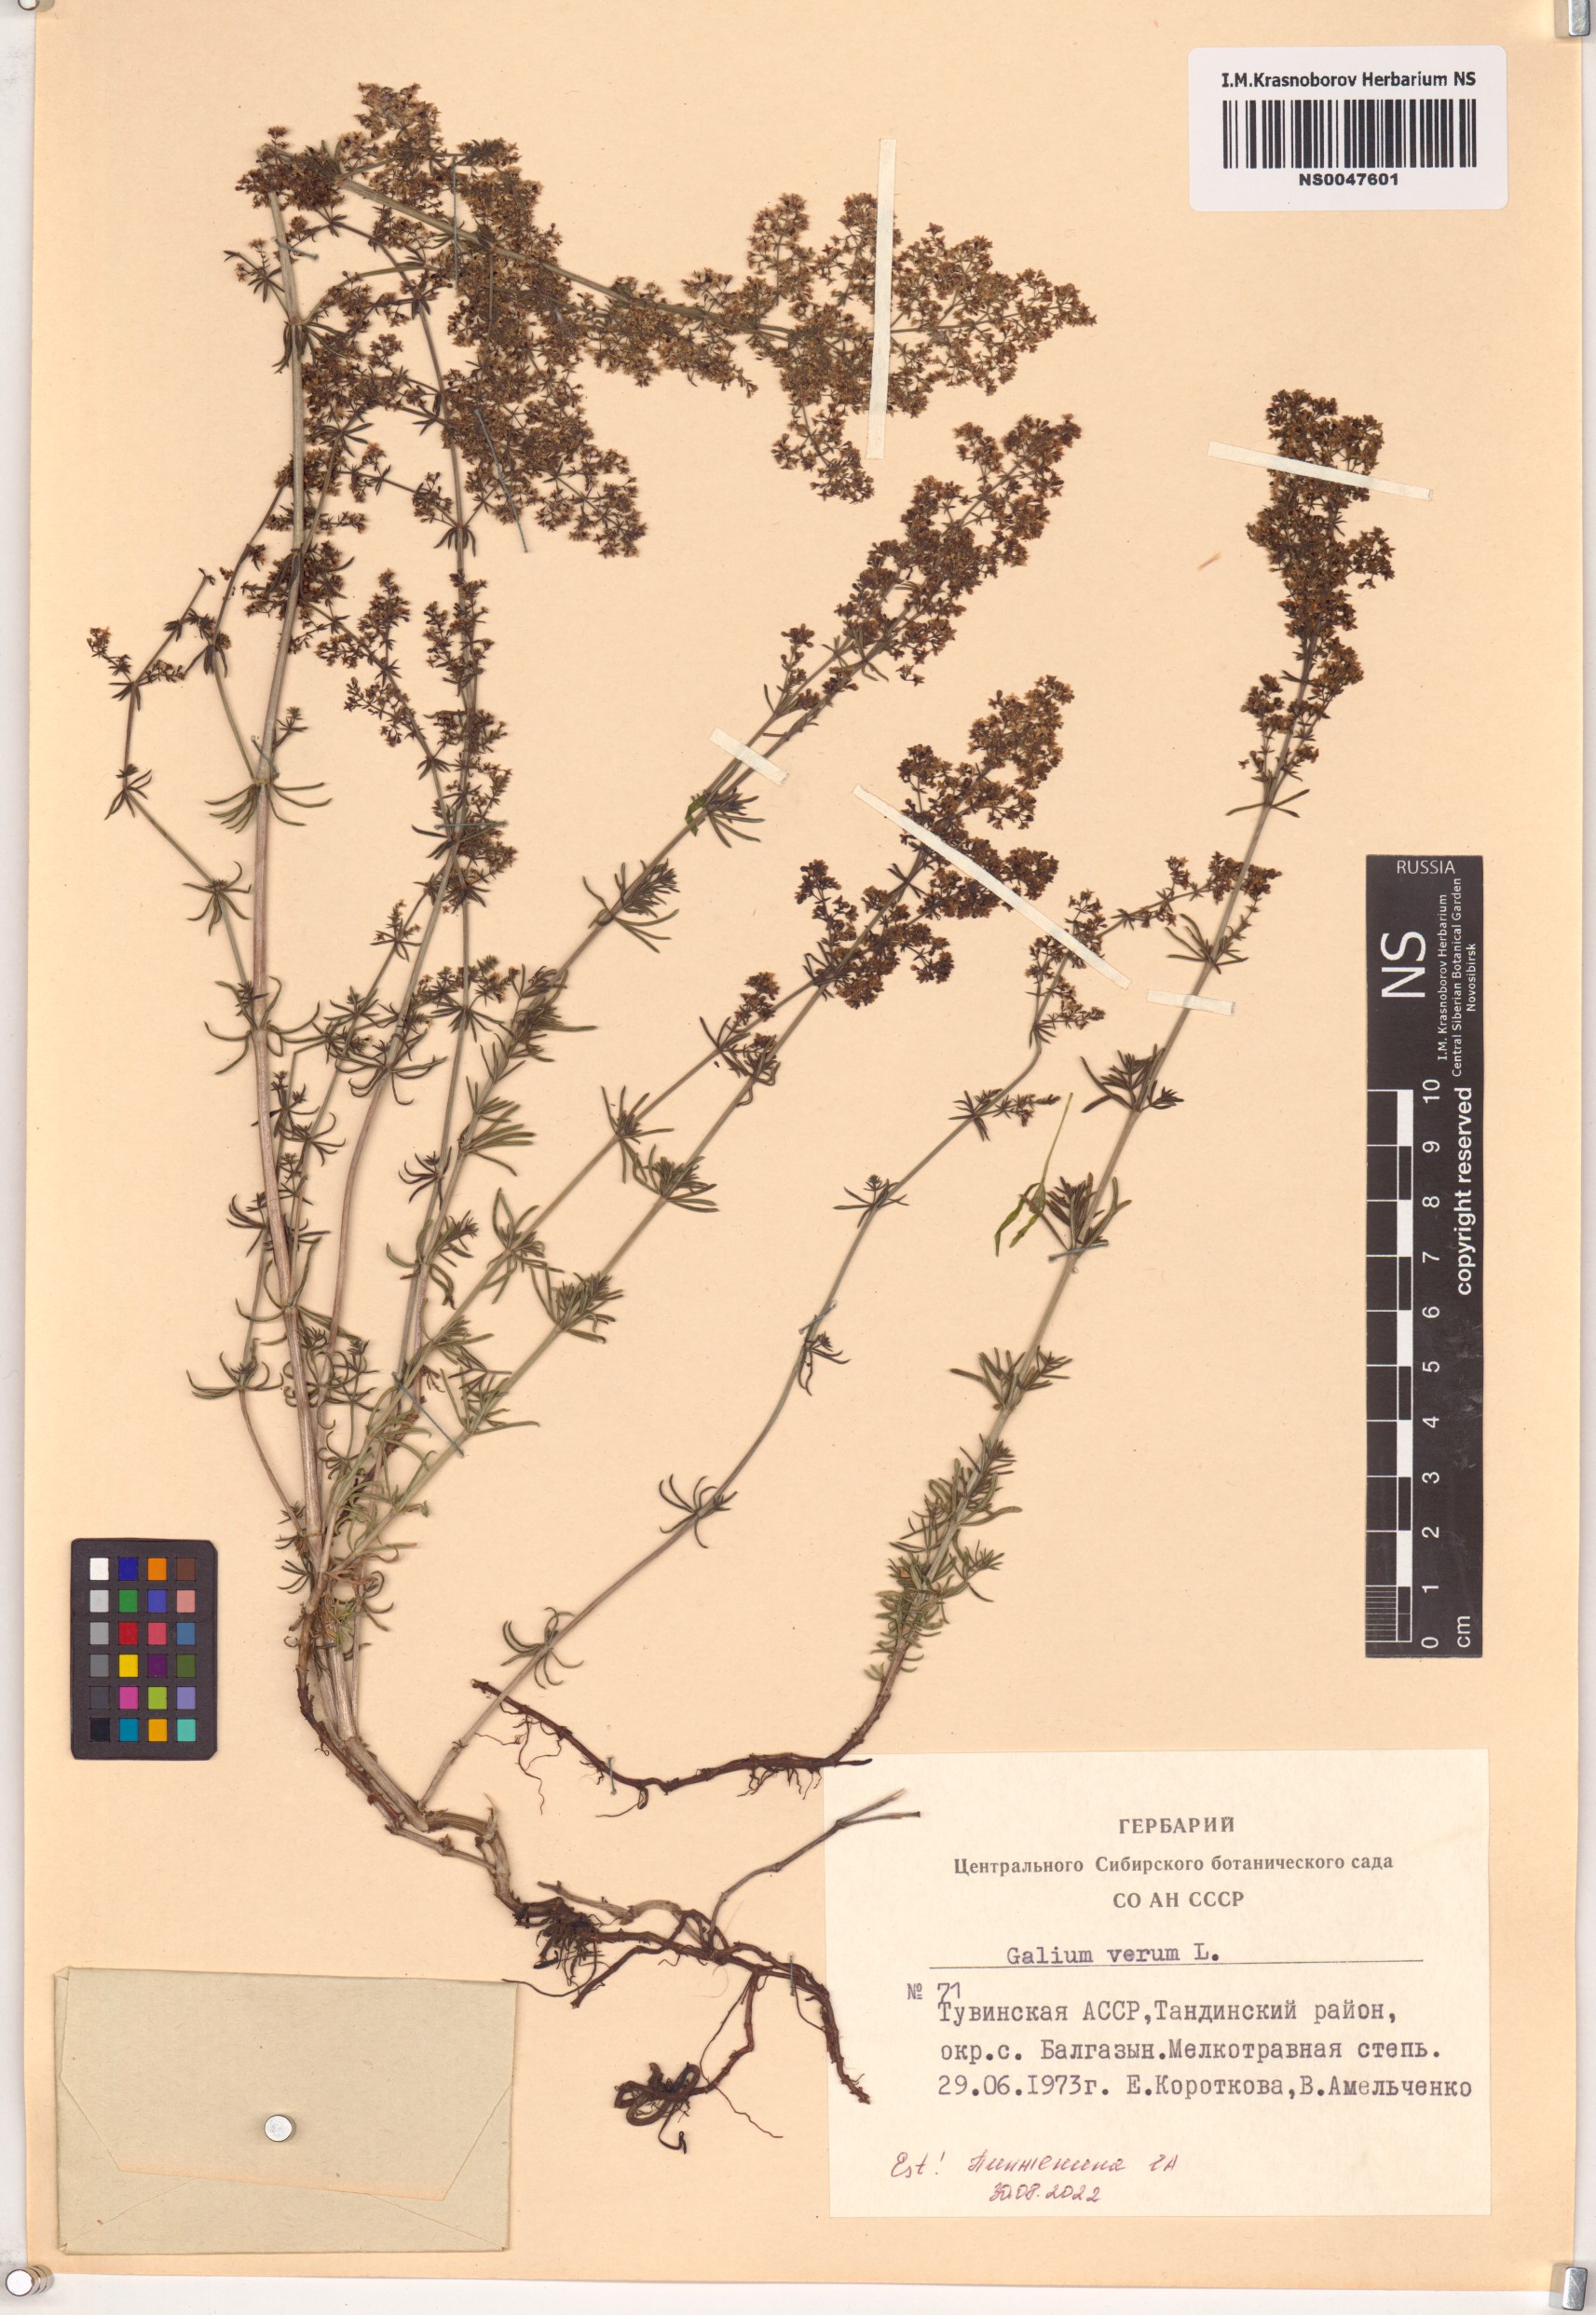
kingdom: Plantae
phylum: Tracheophyta
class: Magnoliopsida
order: Gentianales
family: Rubiaceae
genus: Galium
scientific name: Galium verum
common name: Lady's bedstraw
